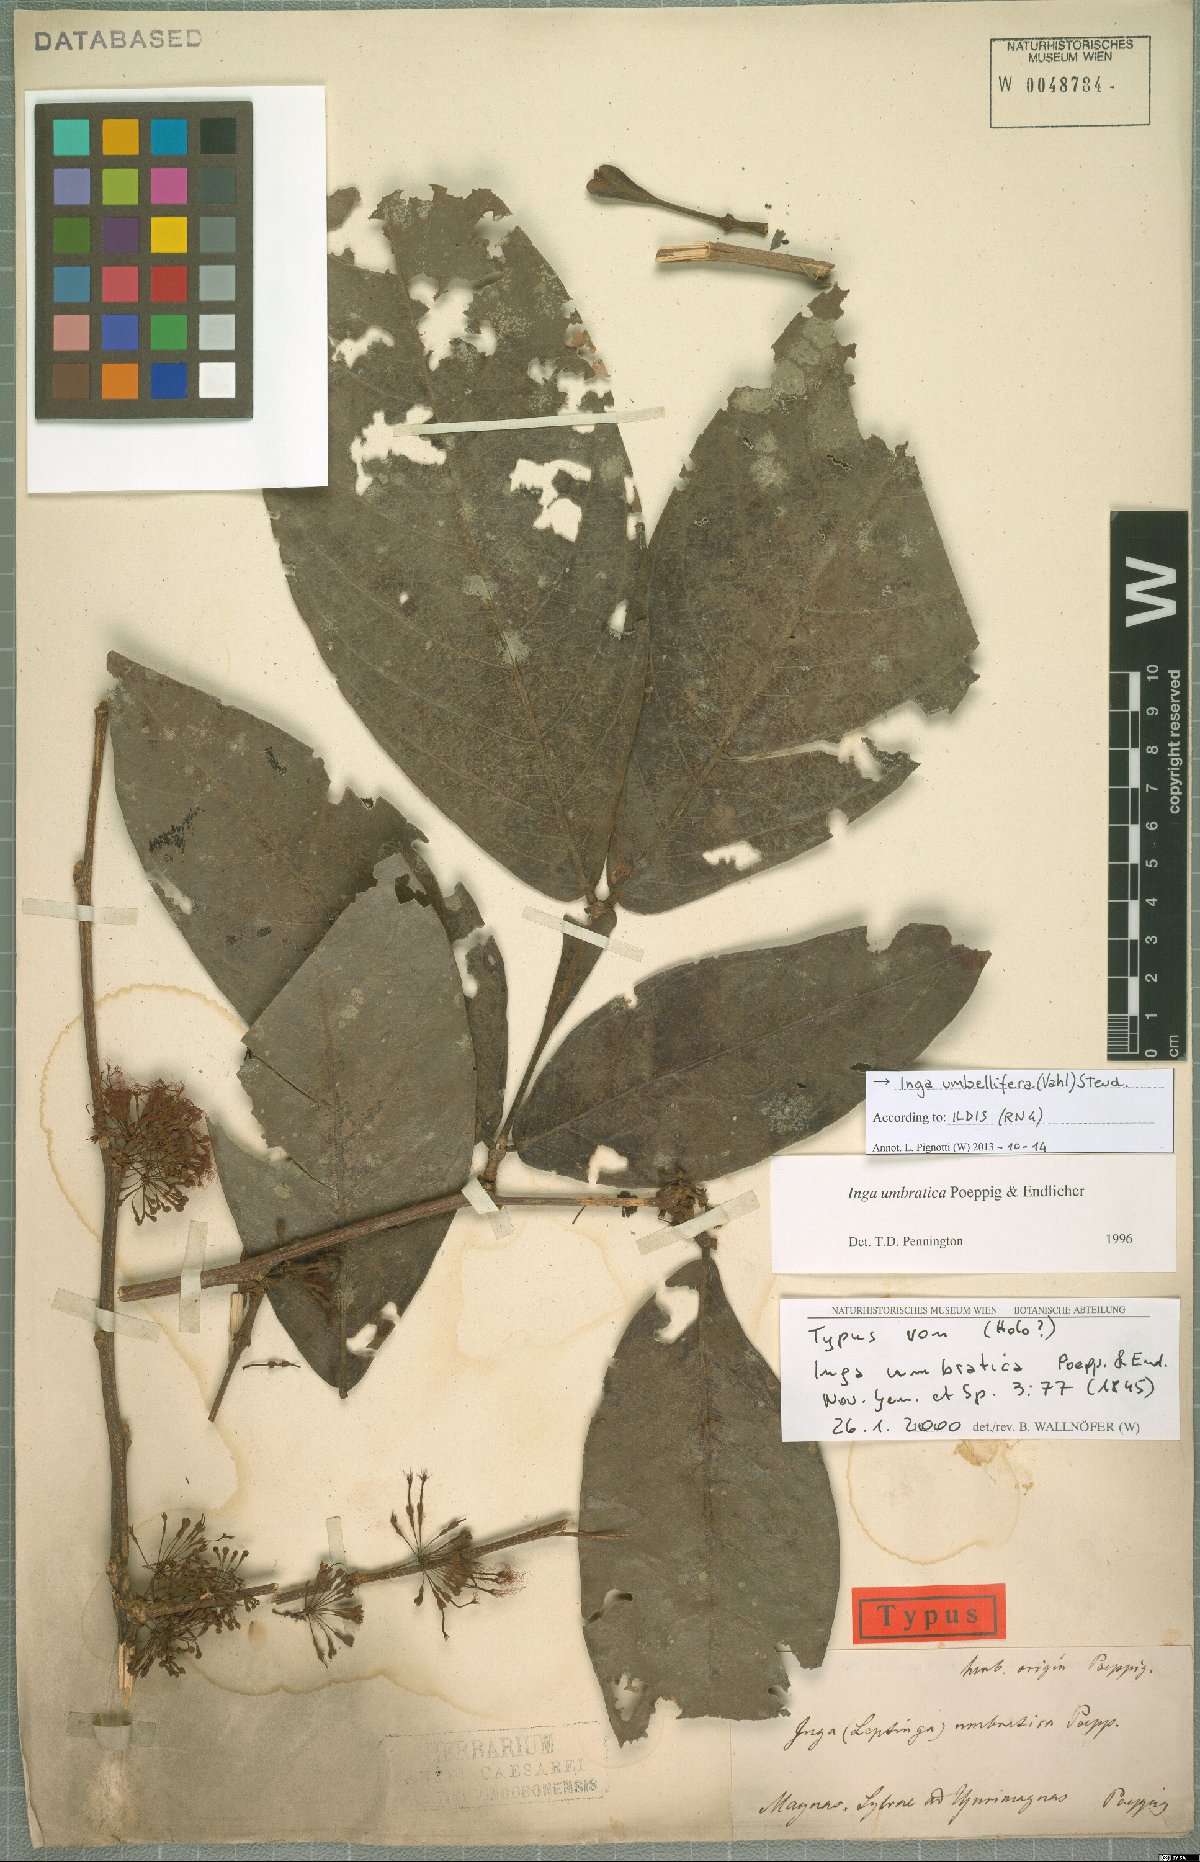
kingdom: Plantae
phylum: Tracheophyta
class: Magnoliopsida
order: Fabales
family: Fabaceae
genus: Inga
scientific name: Inga umbellifera
